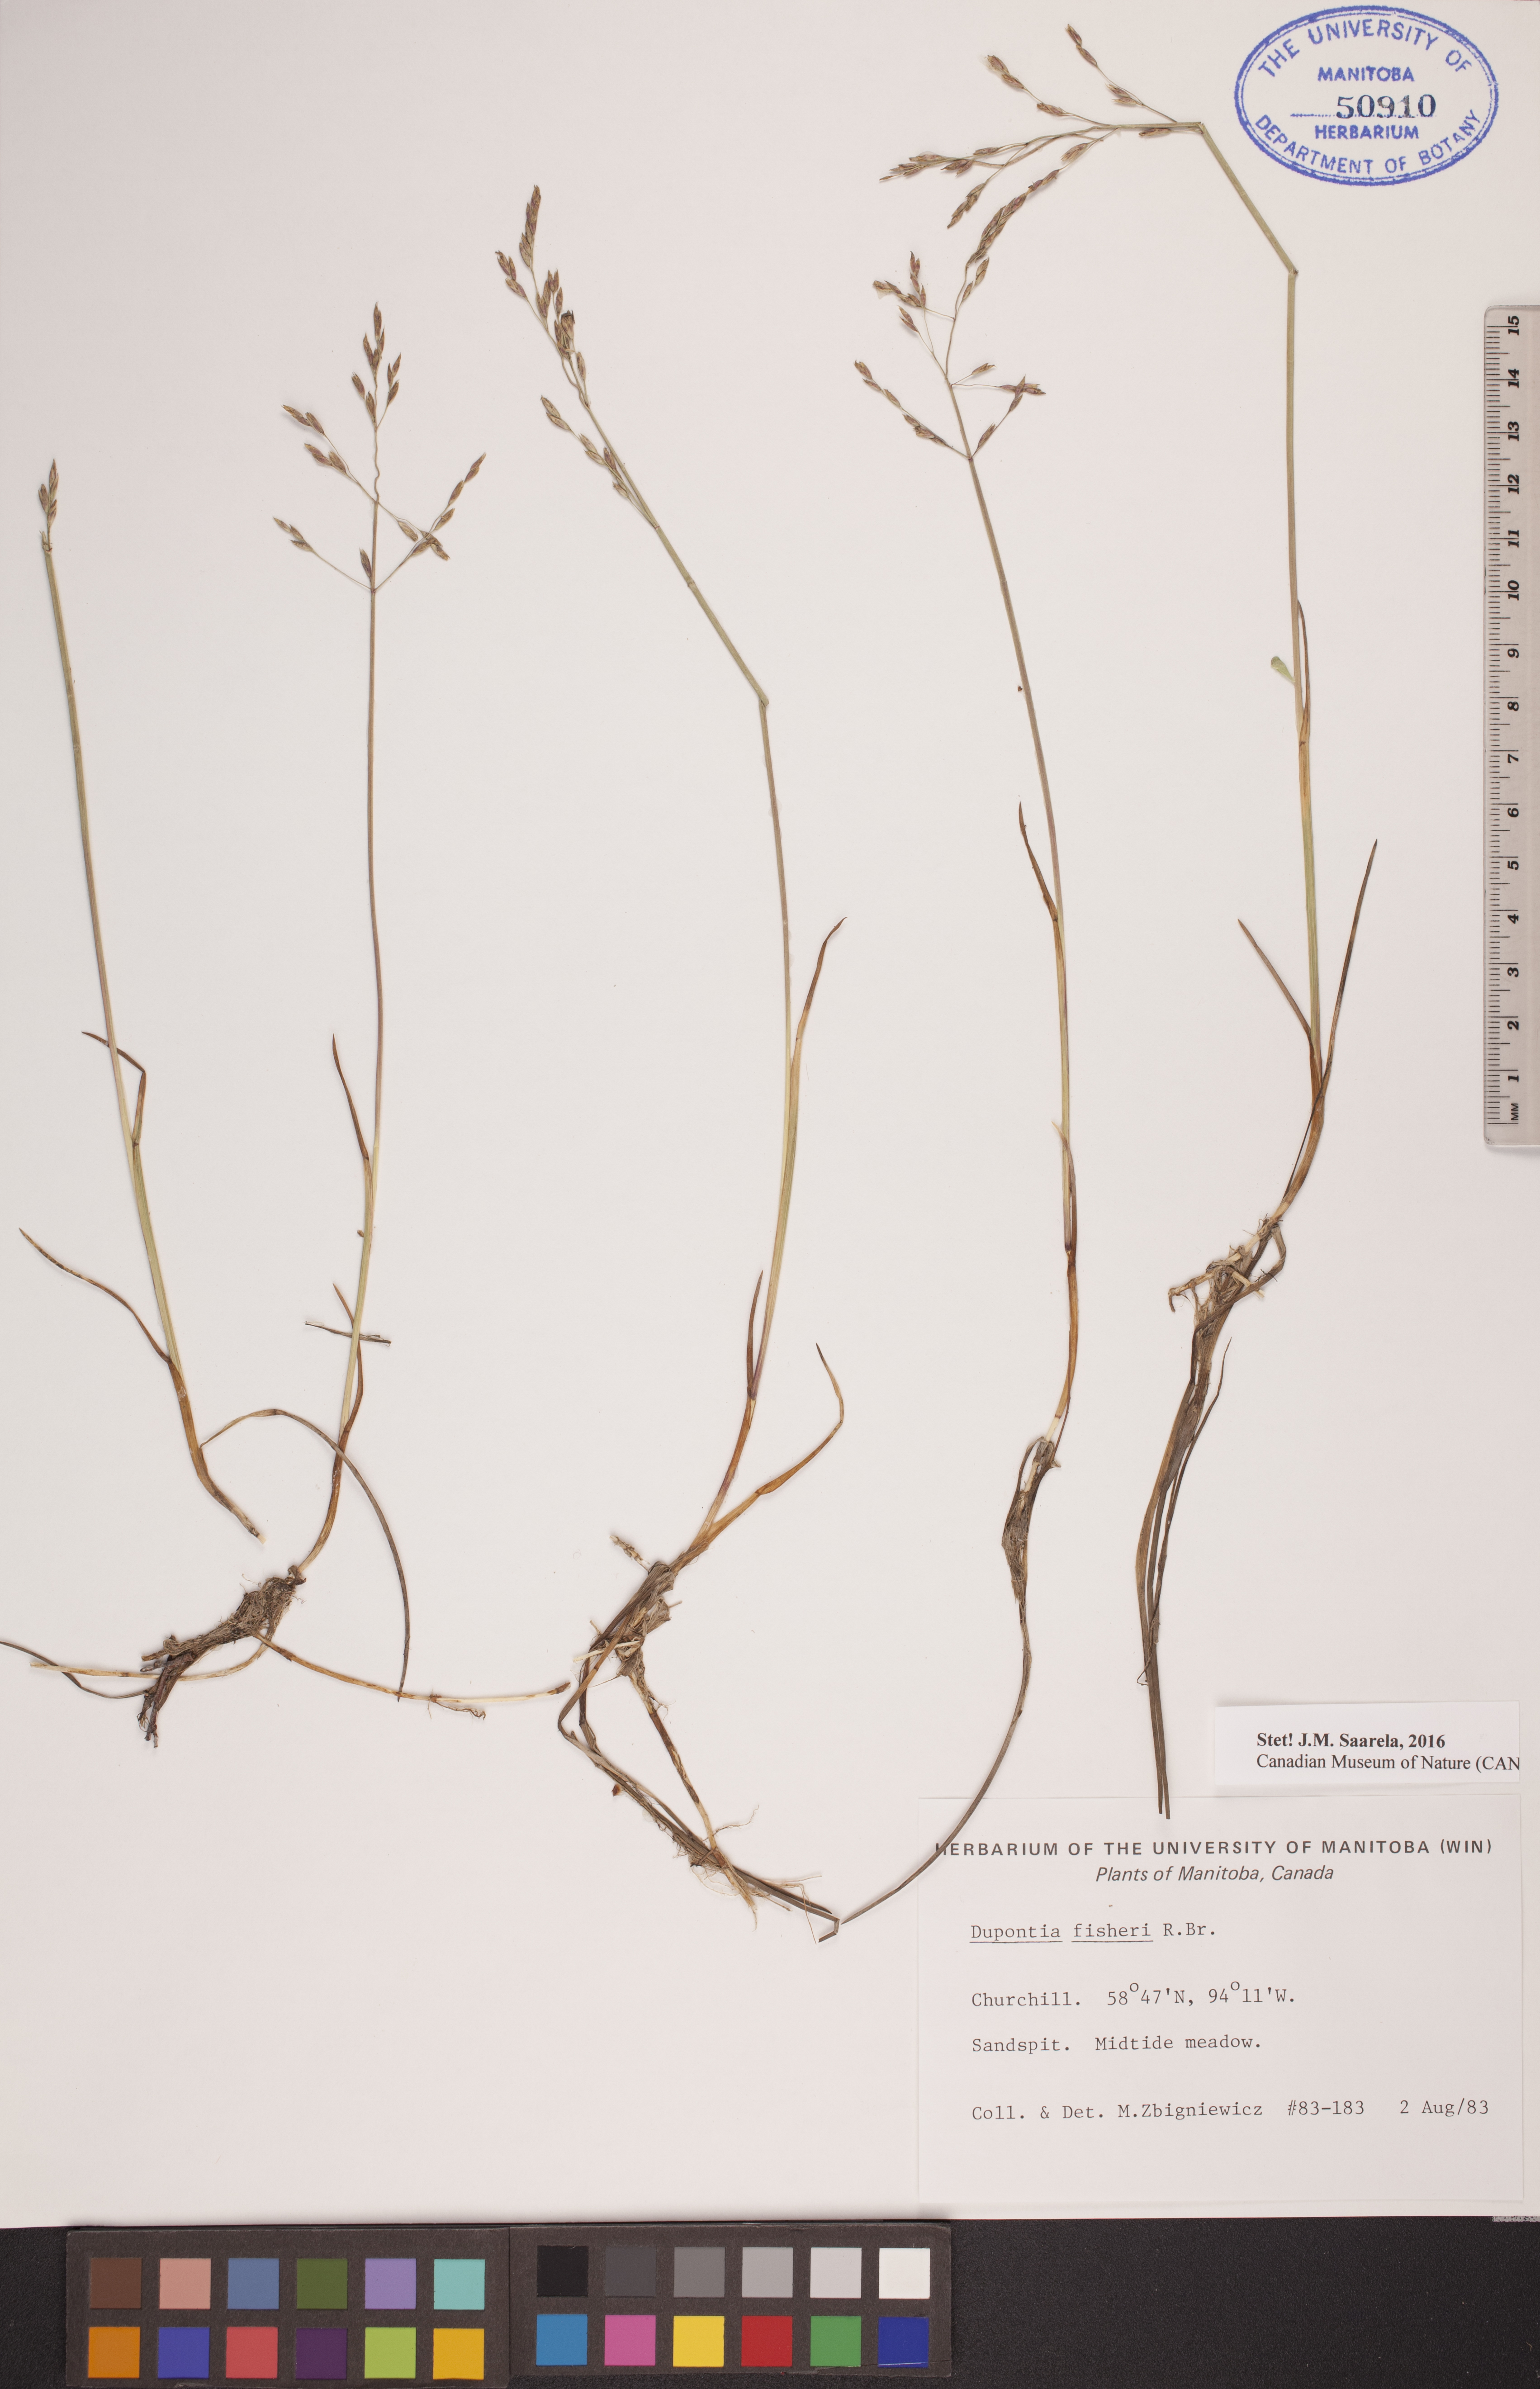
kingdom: Plantae
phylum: Tracheophyta
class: Liliopsida
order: Poales
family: Poaceae
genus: Dupontia
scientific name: Dupontia fisheri
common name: Tundra grass
